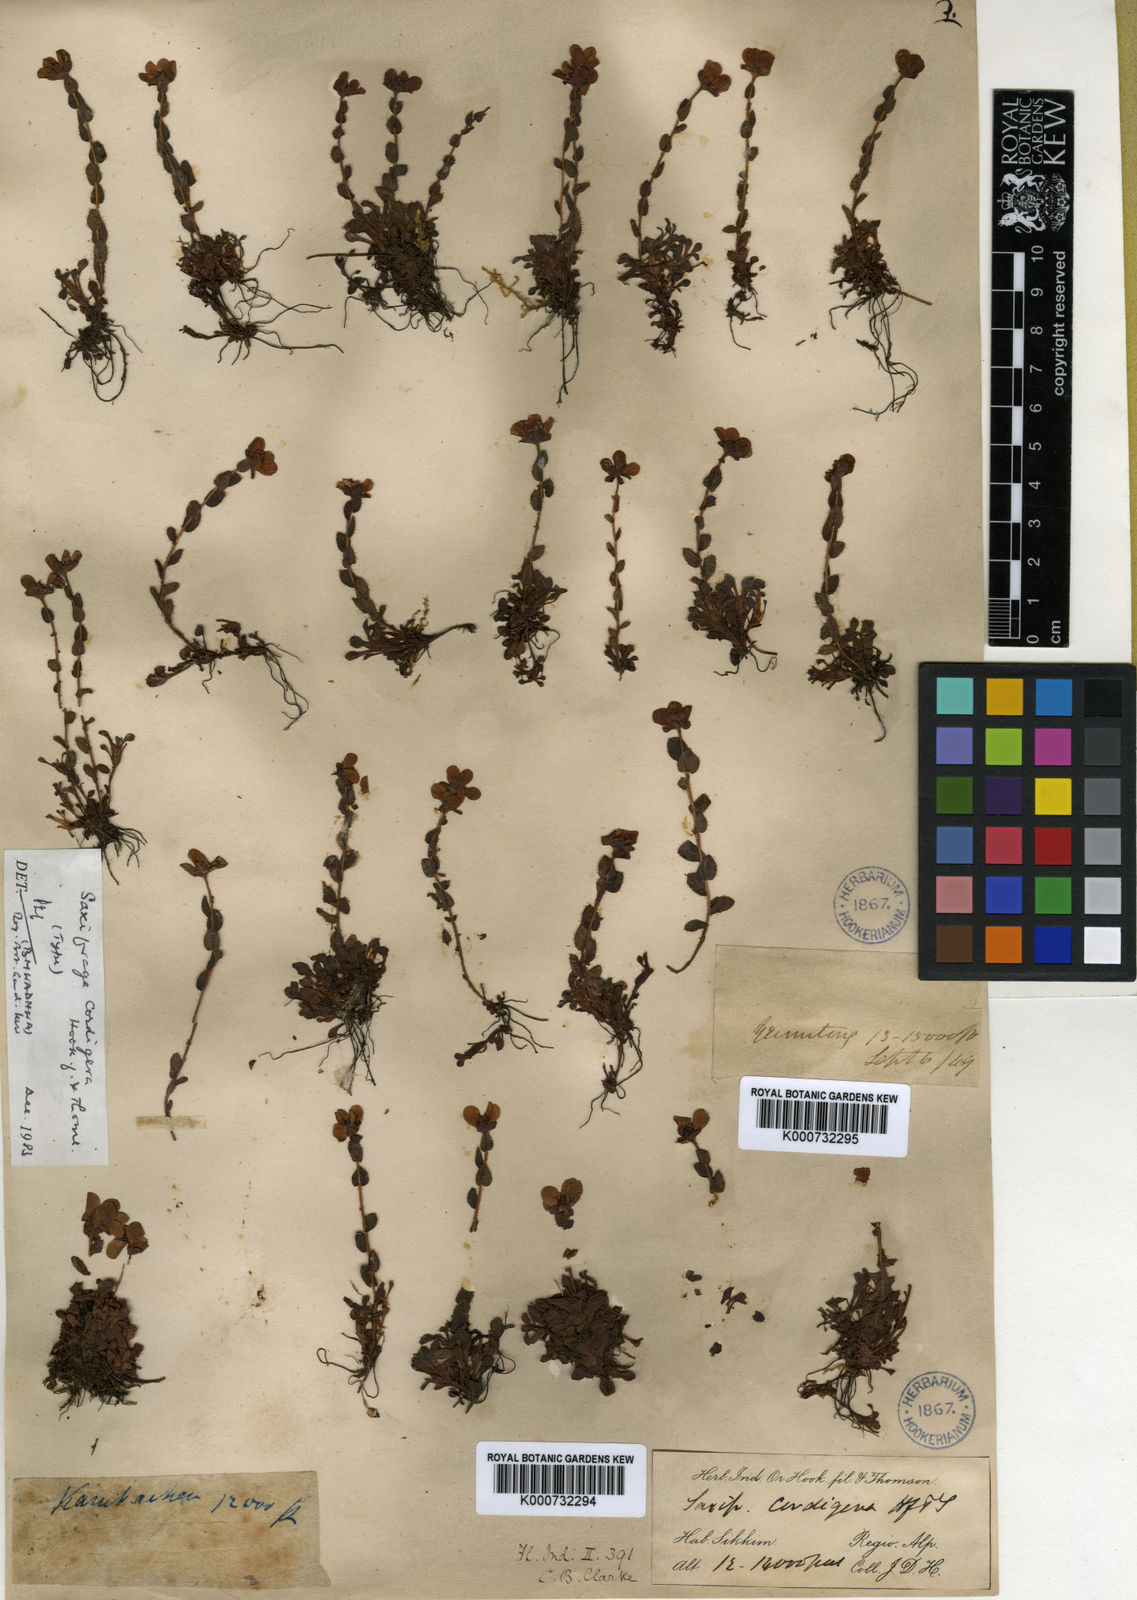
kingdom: Plantae
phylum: Tracheophyta
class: Magnoliopsida
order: Saxifragales
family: Saxifragaceae
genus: Saxifraga
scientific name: Saxifraga cordigera
